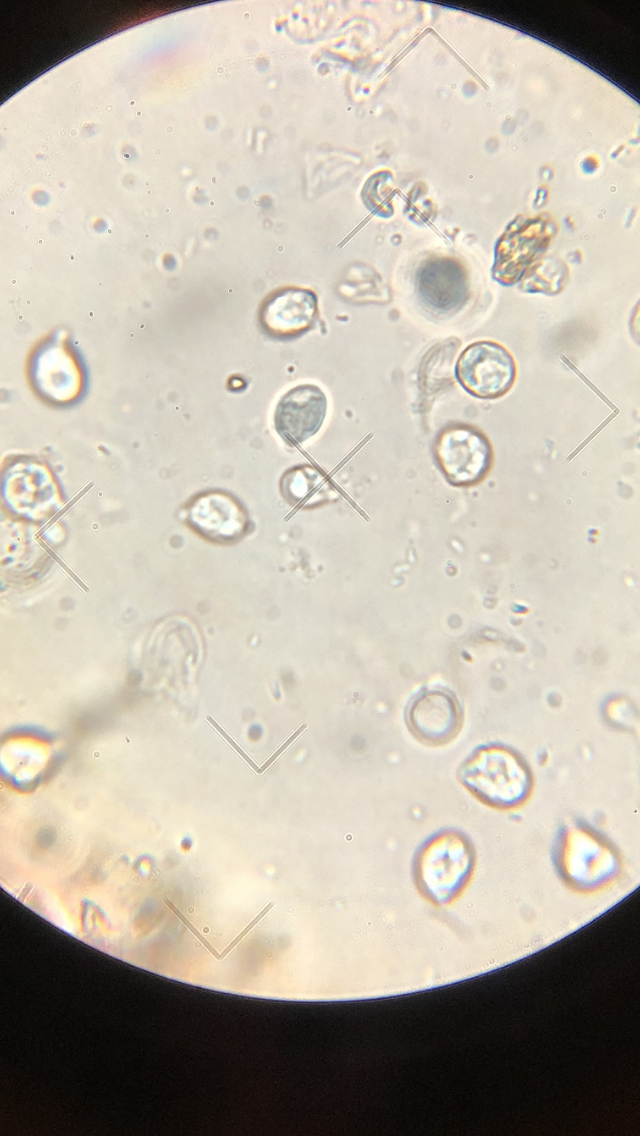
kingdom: Fungi
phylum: Basidiomycota
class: Tremellomycetes
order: Tremellales
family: Tremellaceae
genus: Phaeotremella
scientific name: Phaeotremella frondosa
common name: kæmpe-bævresvamp
